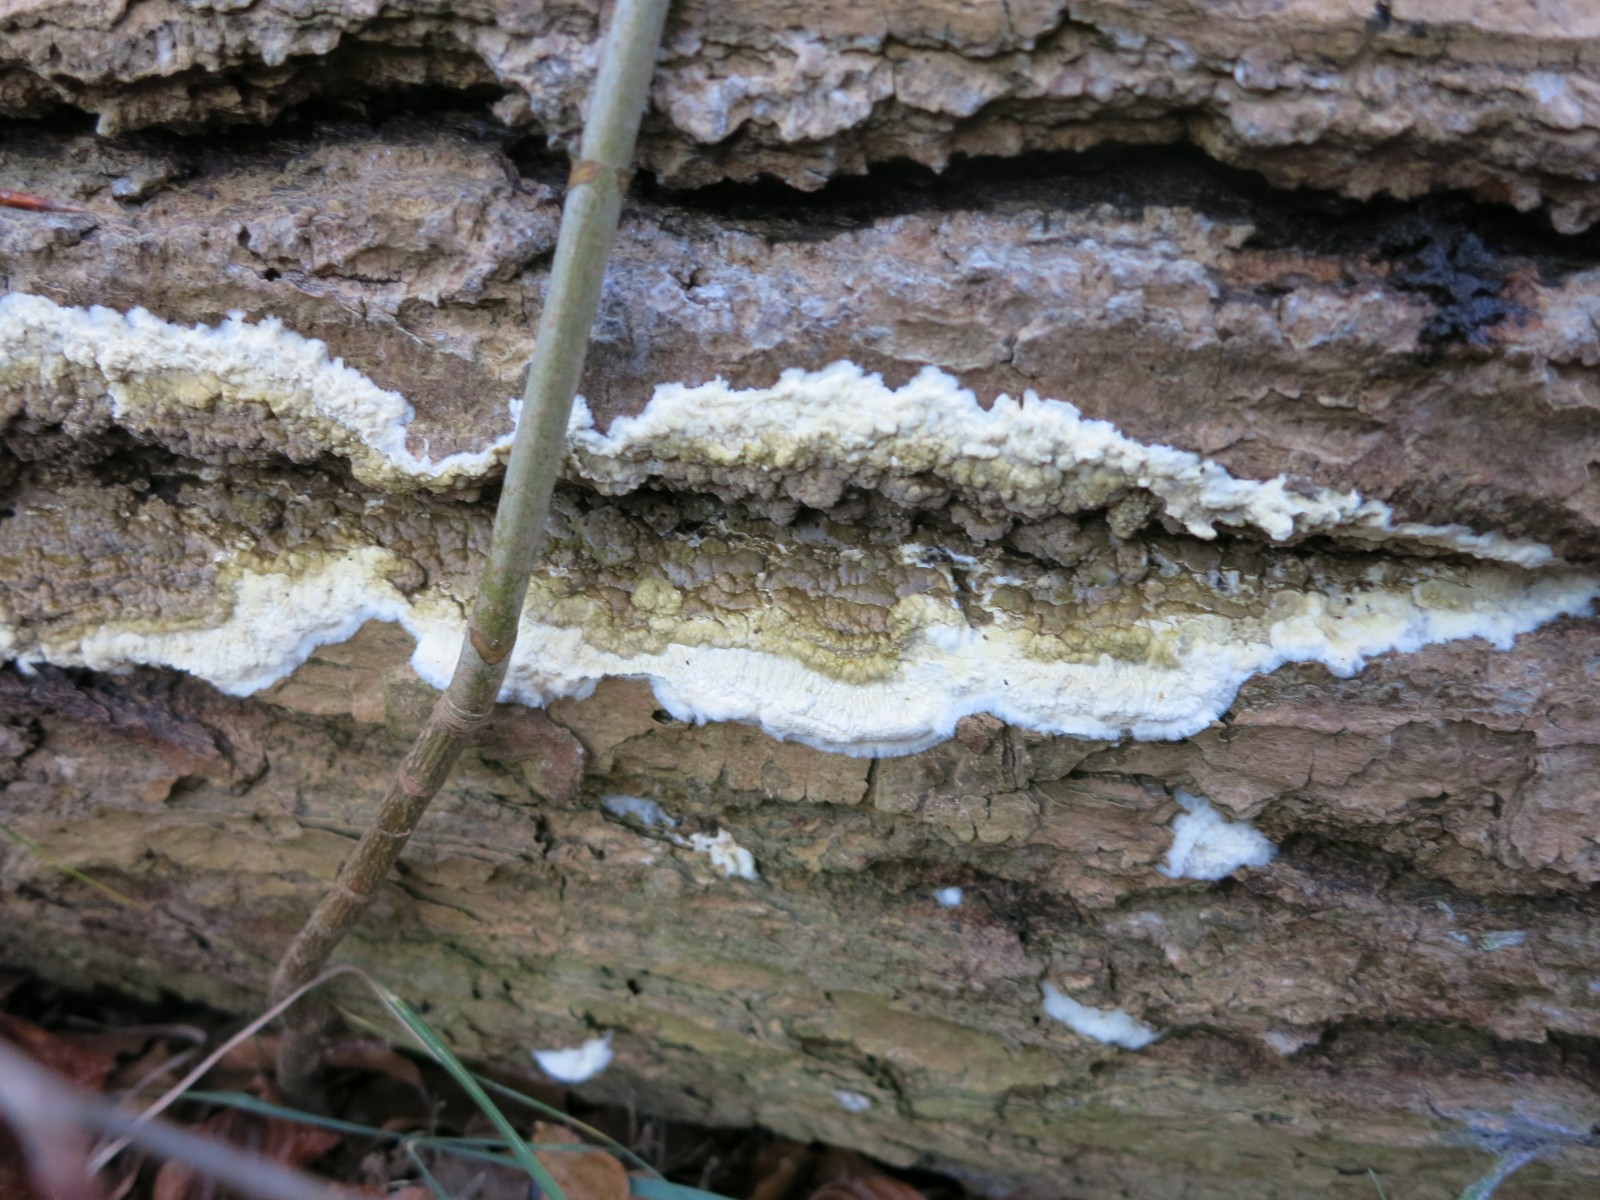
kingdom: Fungi
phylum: Basidiomycota
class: Agaricomycetes
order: Boletales
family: Coniophoraceae
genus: Coniophora
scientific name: Coniophora puteana
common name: gul tømmersvamp
